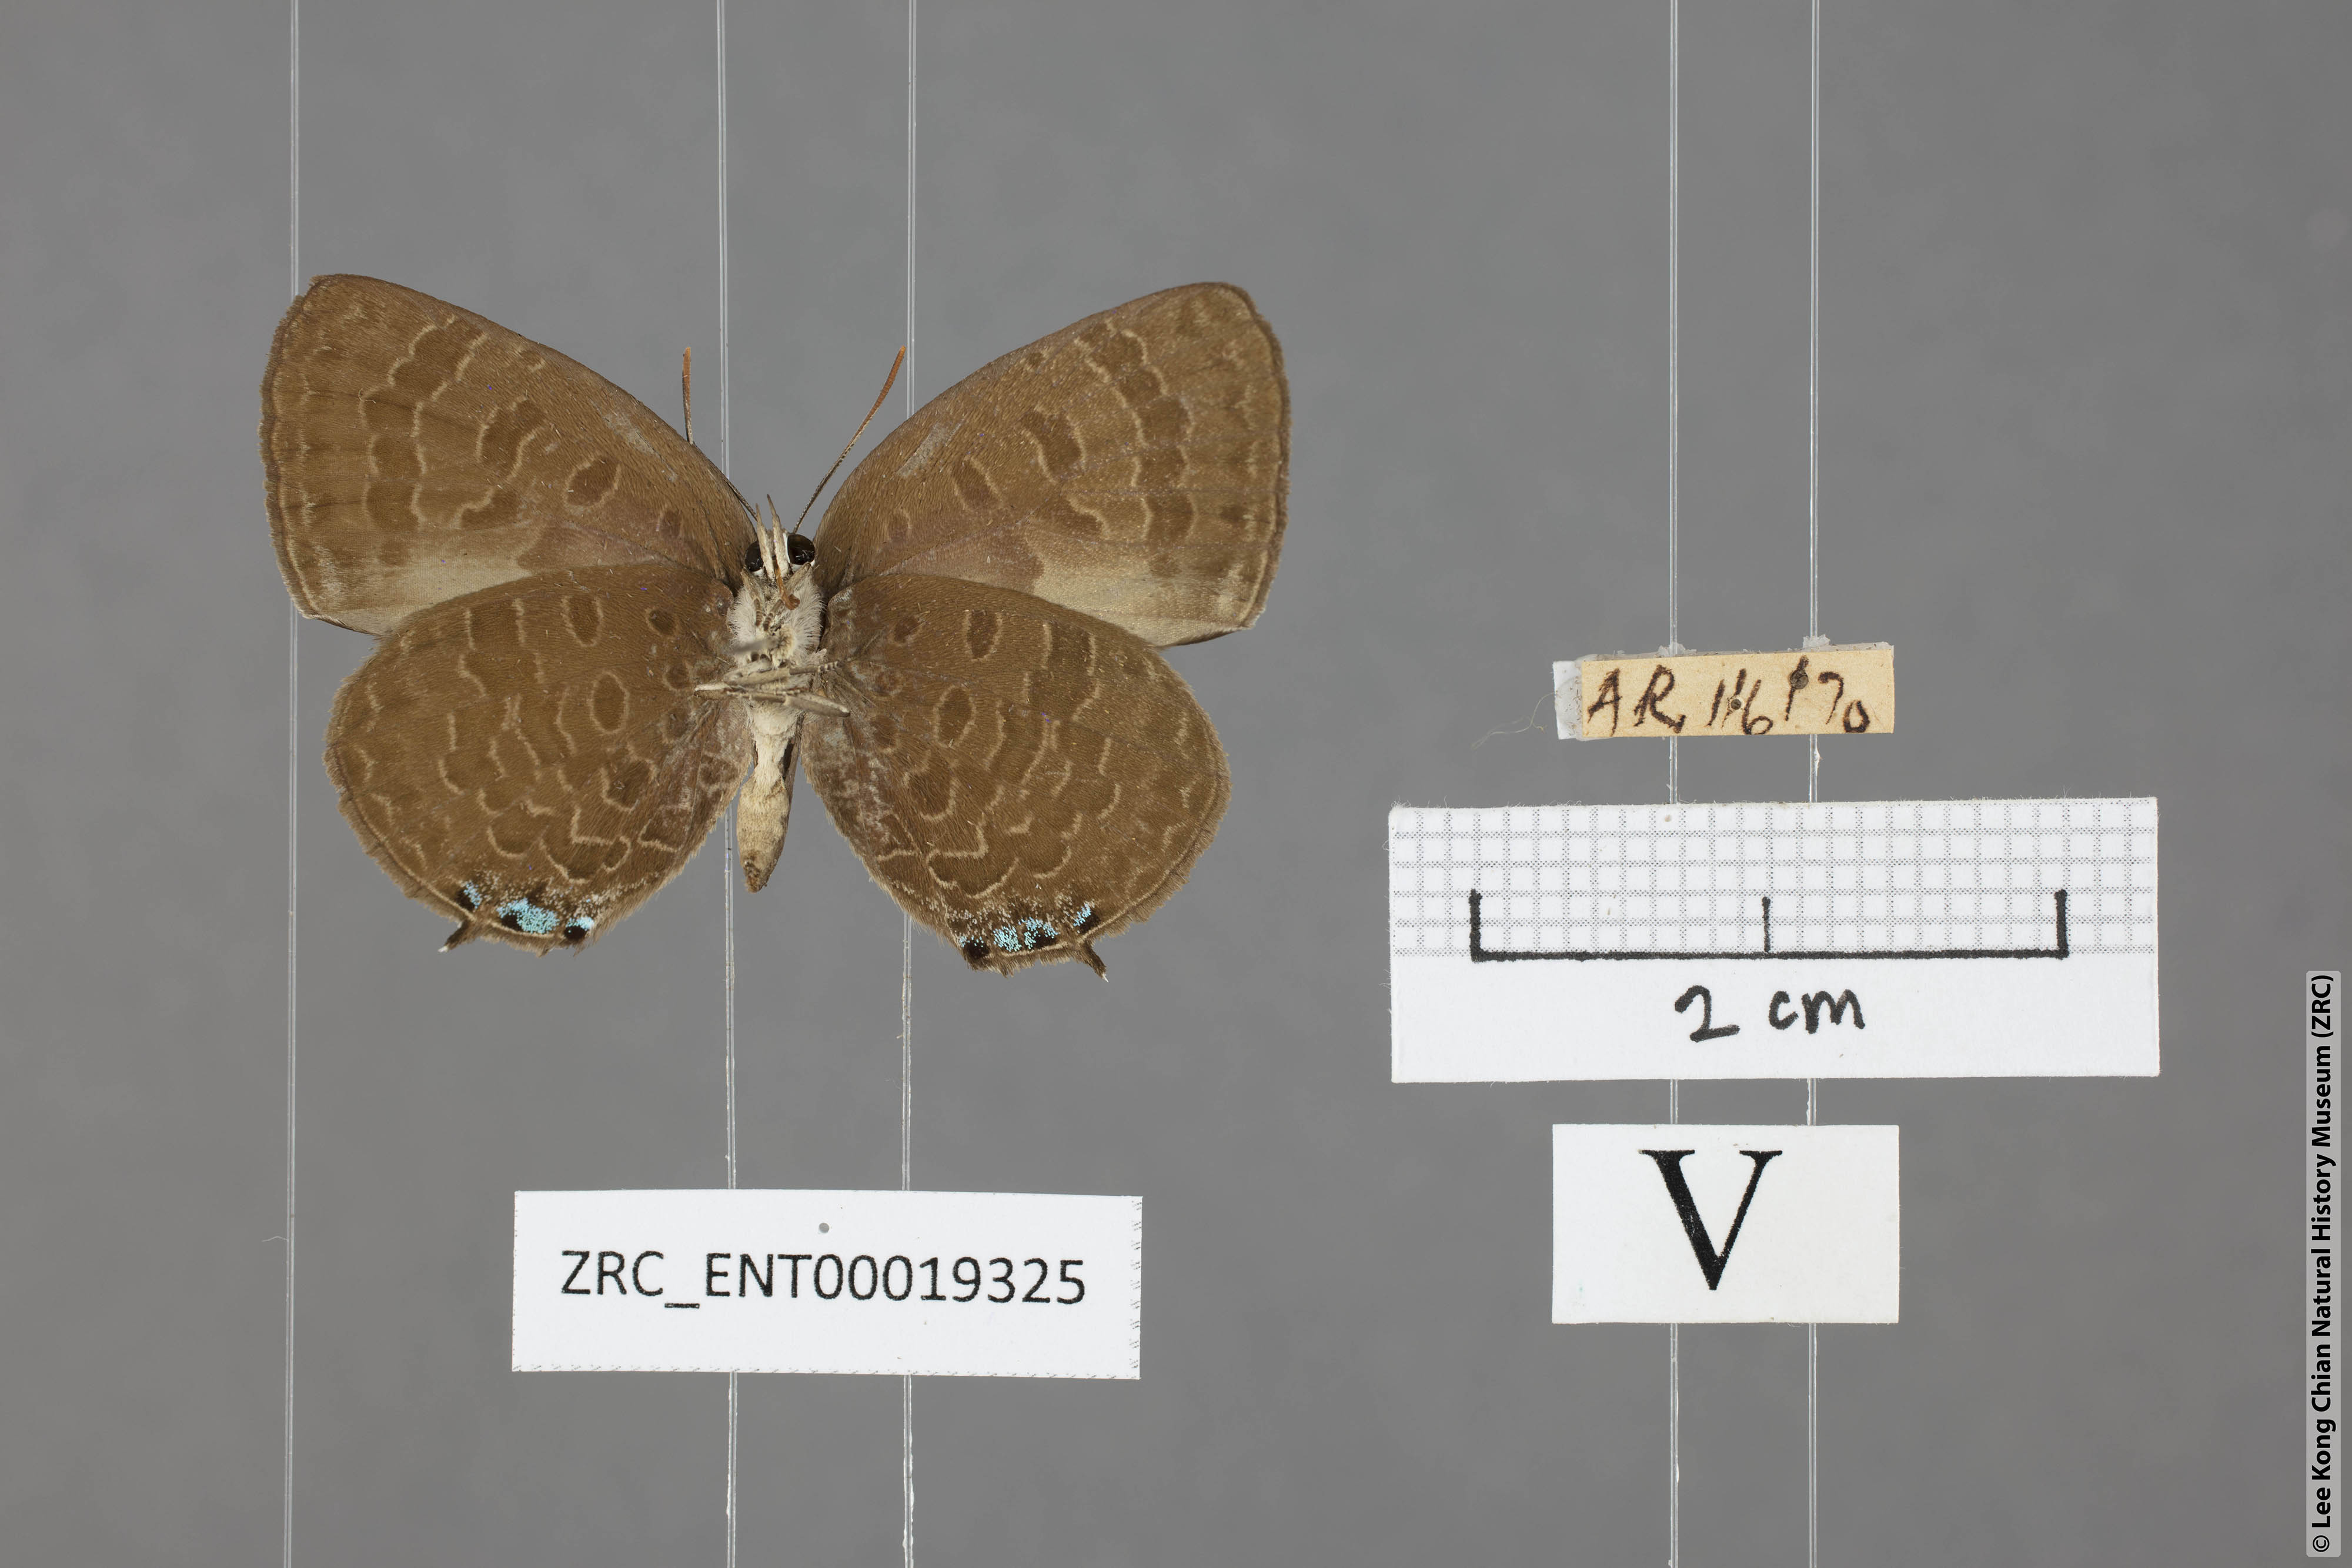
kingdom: Animalia
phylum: Arthropoda
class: Insecta
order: Lepidoptera
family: Lycaenidae
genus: Arhopala
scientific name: Arhopala buddha
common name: Buddha oakblue
